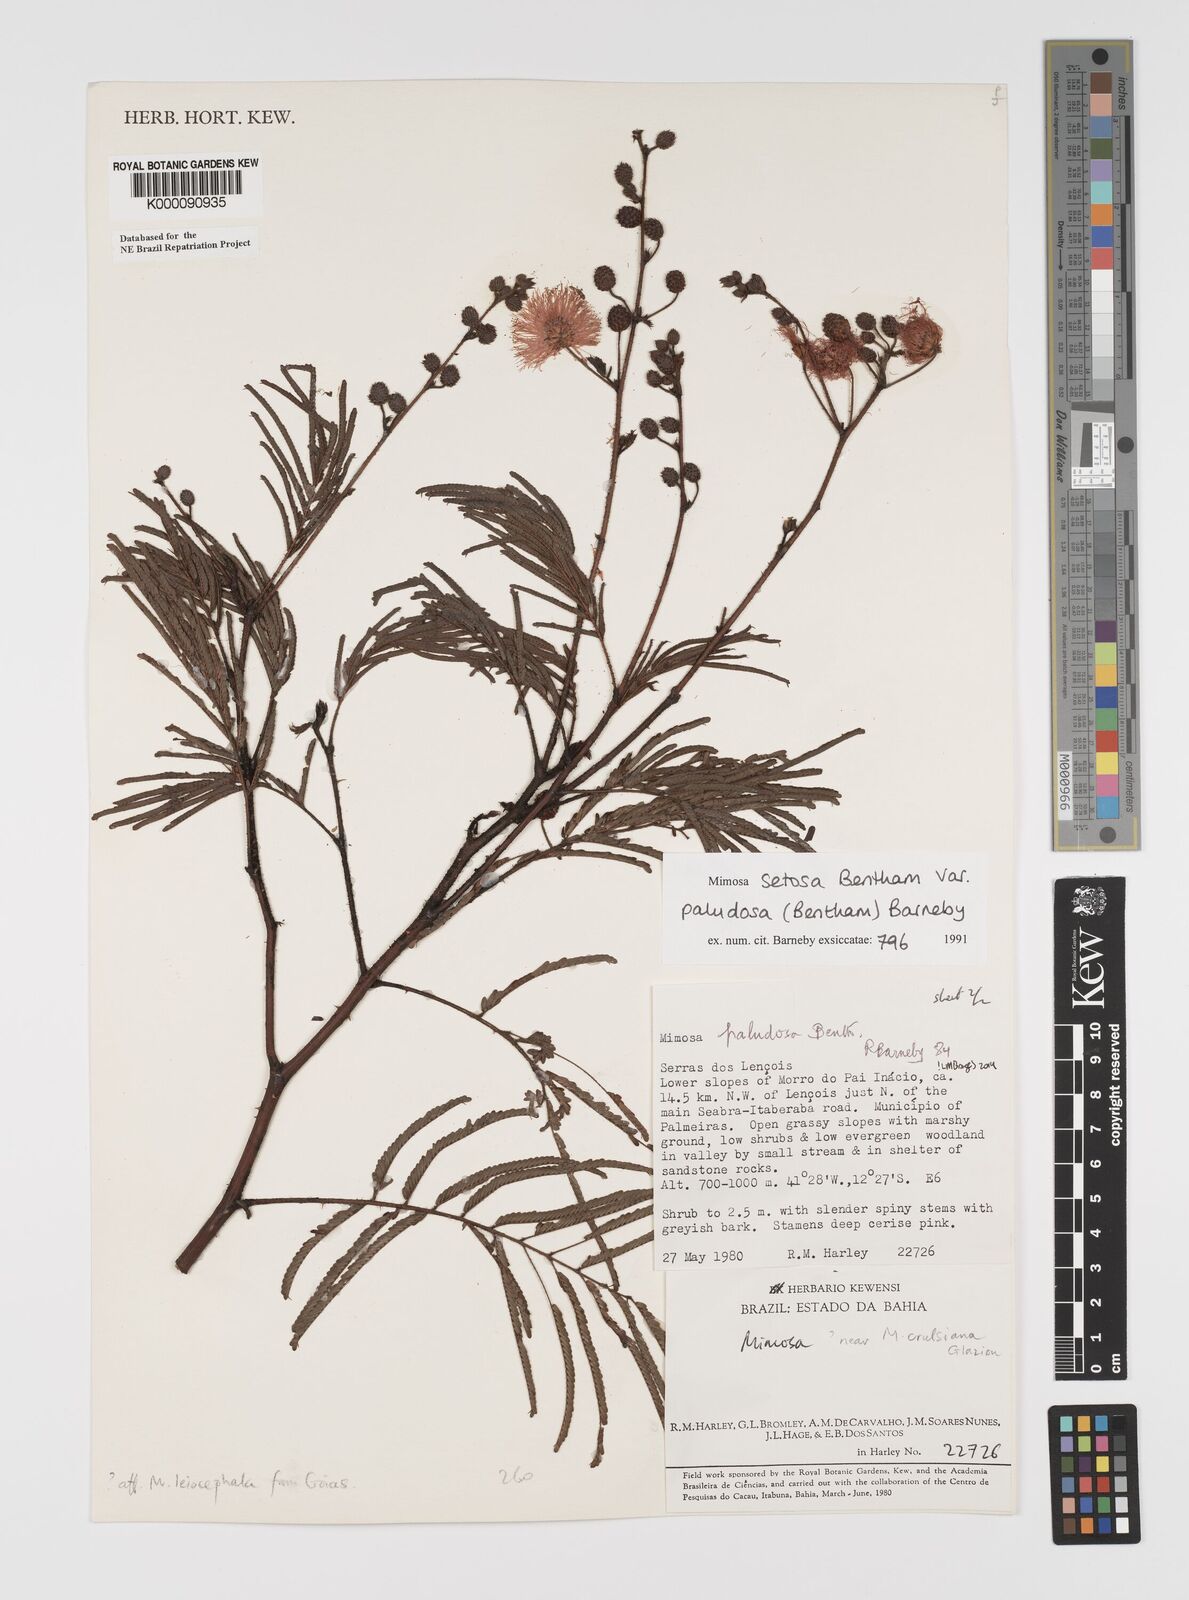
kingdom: Plantae
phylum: Tracheophyta
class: Magnoliopsida
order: Fabales
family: Fabaceae
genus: Mimosa
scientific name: Mimosa paludosa
